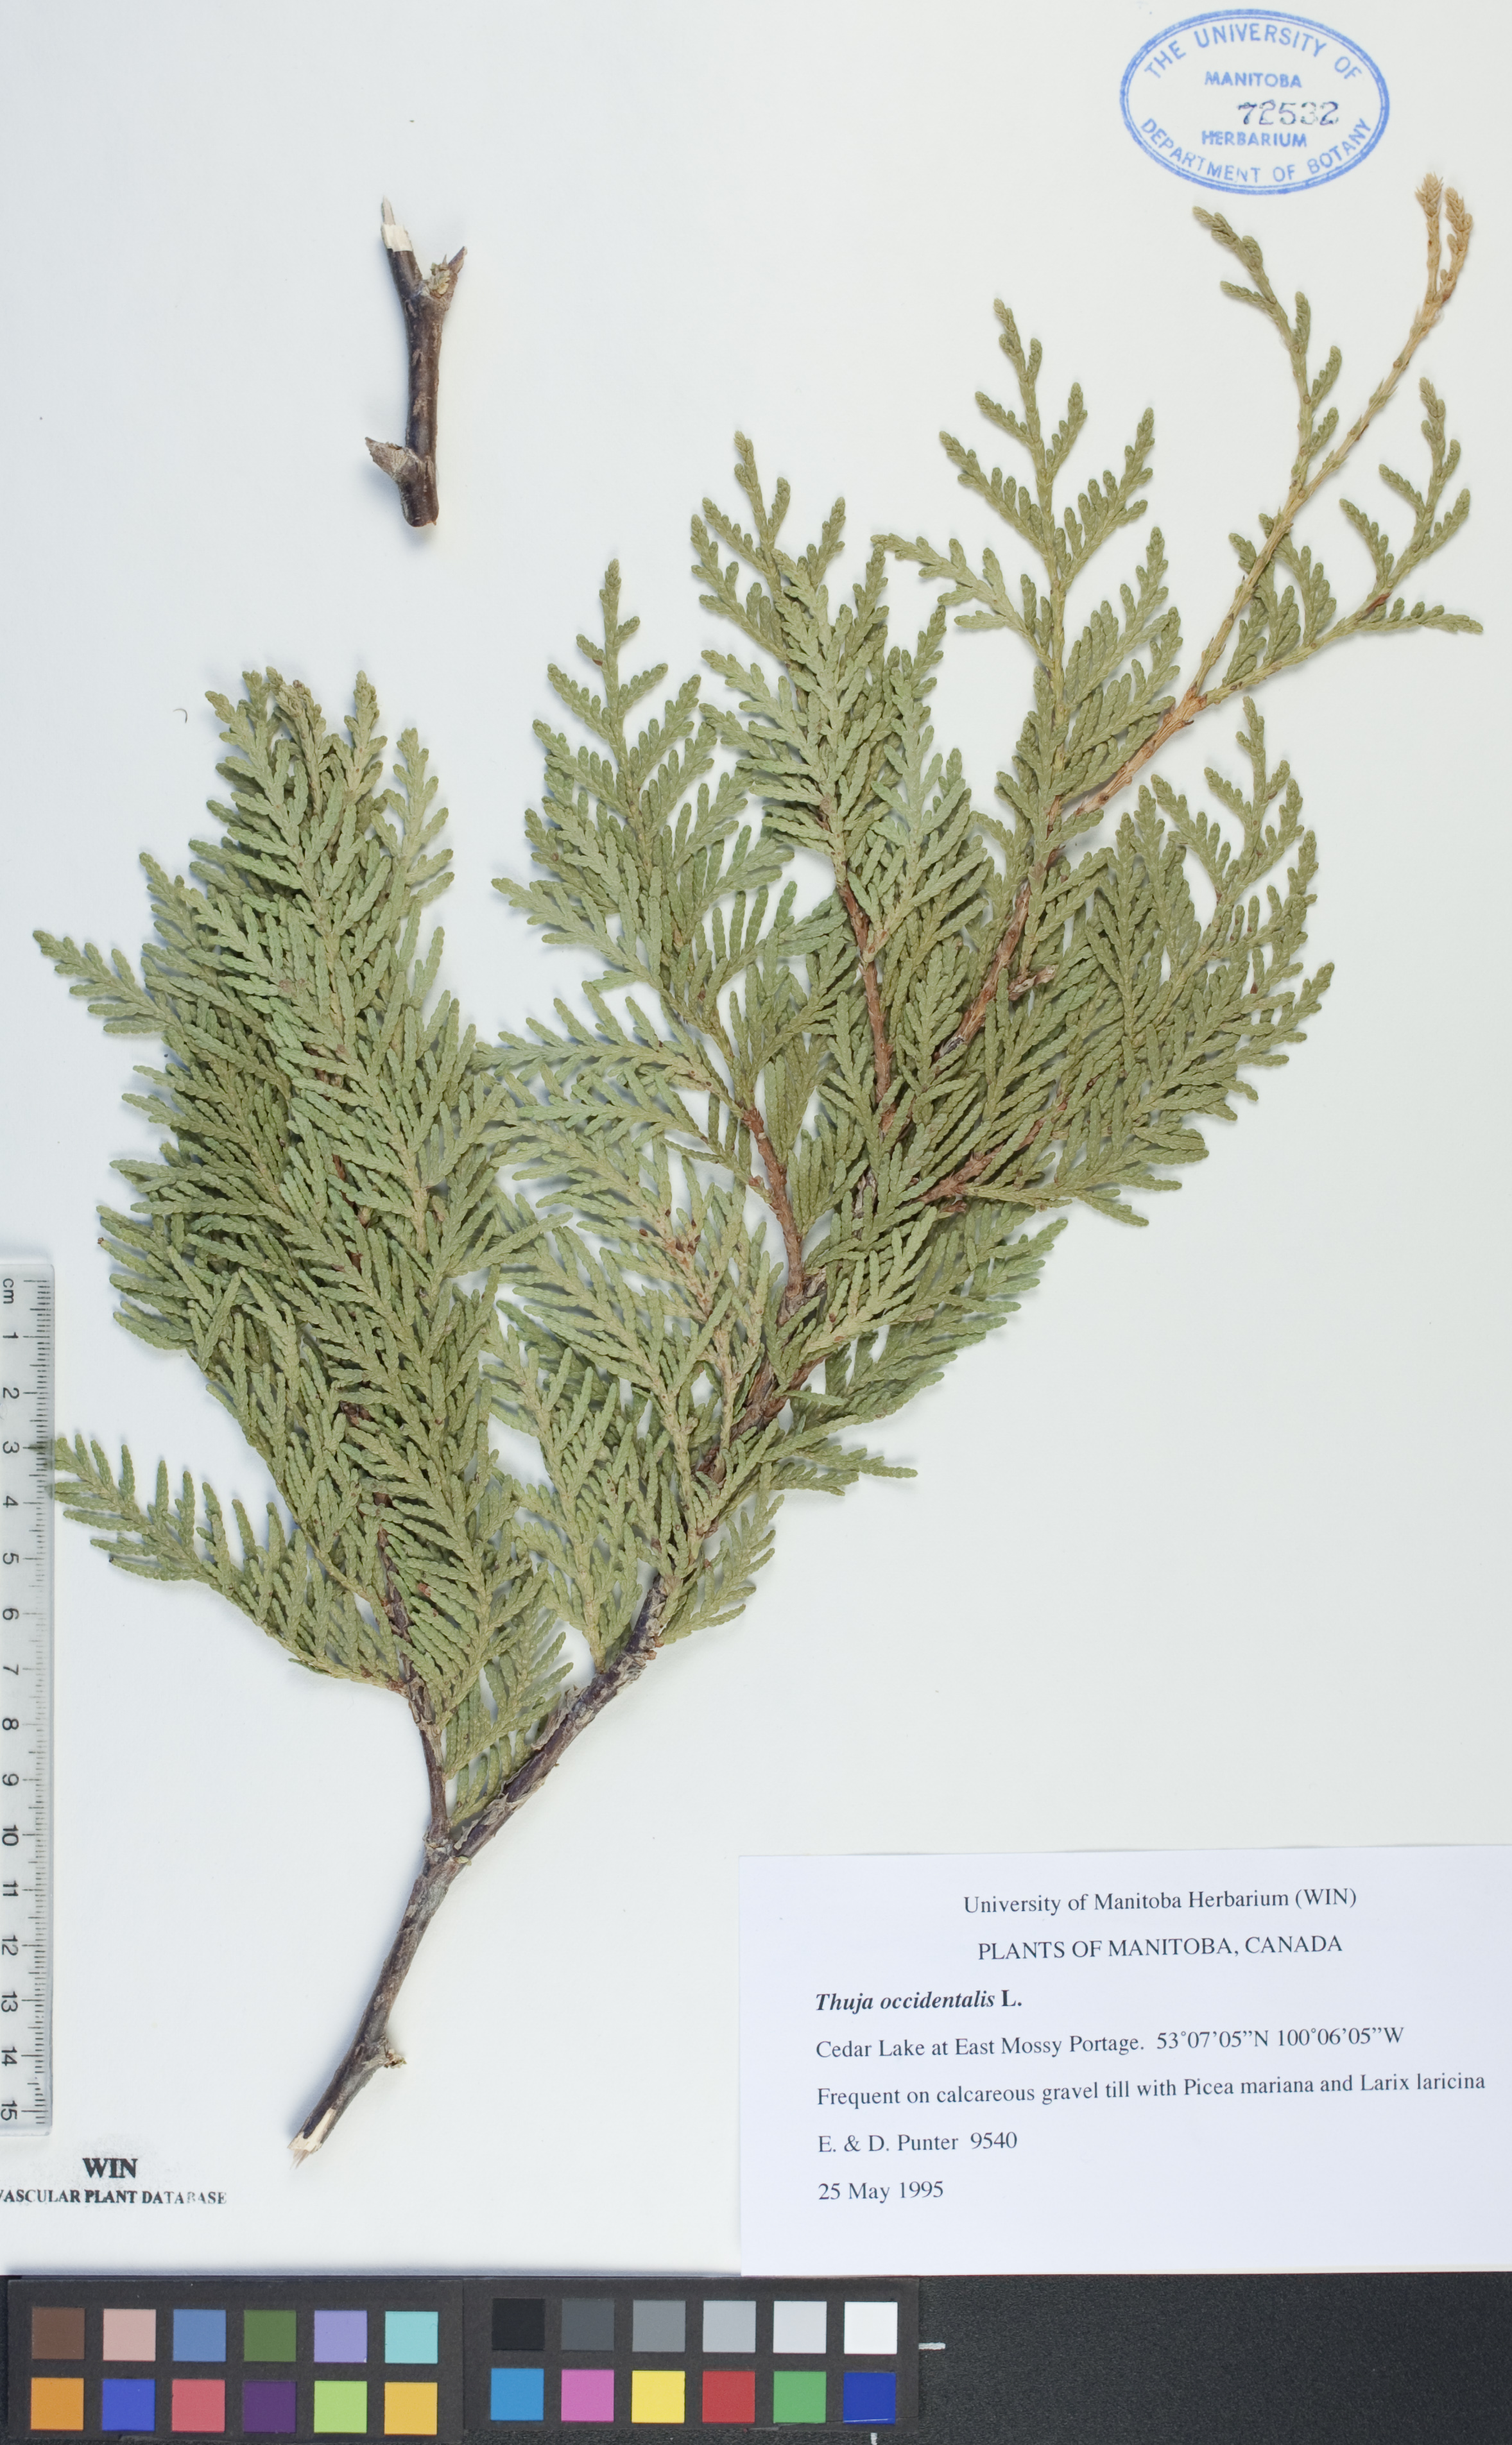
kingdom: Plantae
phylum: Tracheophyta
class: Pinopsida
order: Pinales
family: Cupressaceae
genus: Thuja
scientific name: Thuja occidentalis
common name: Northern white-cedar
